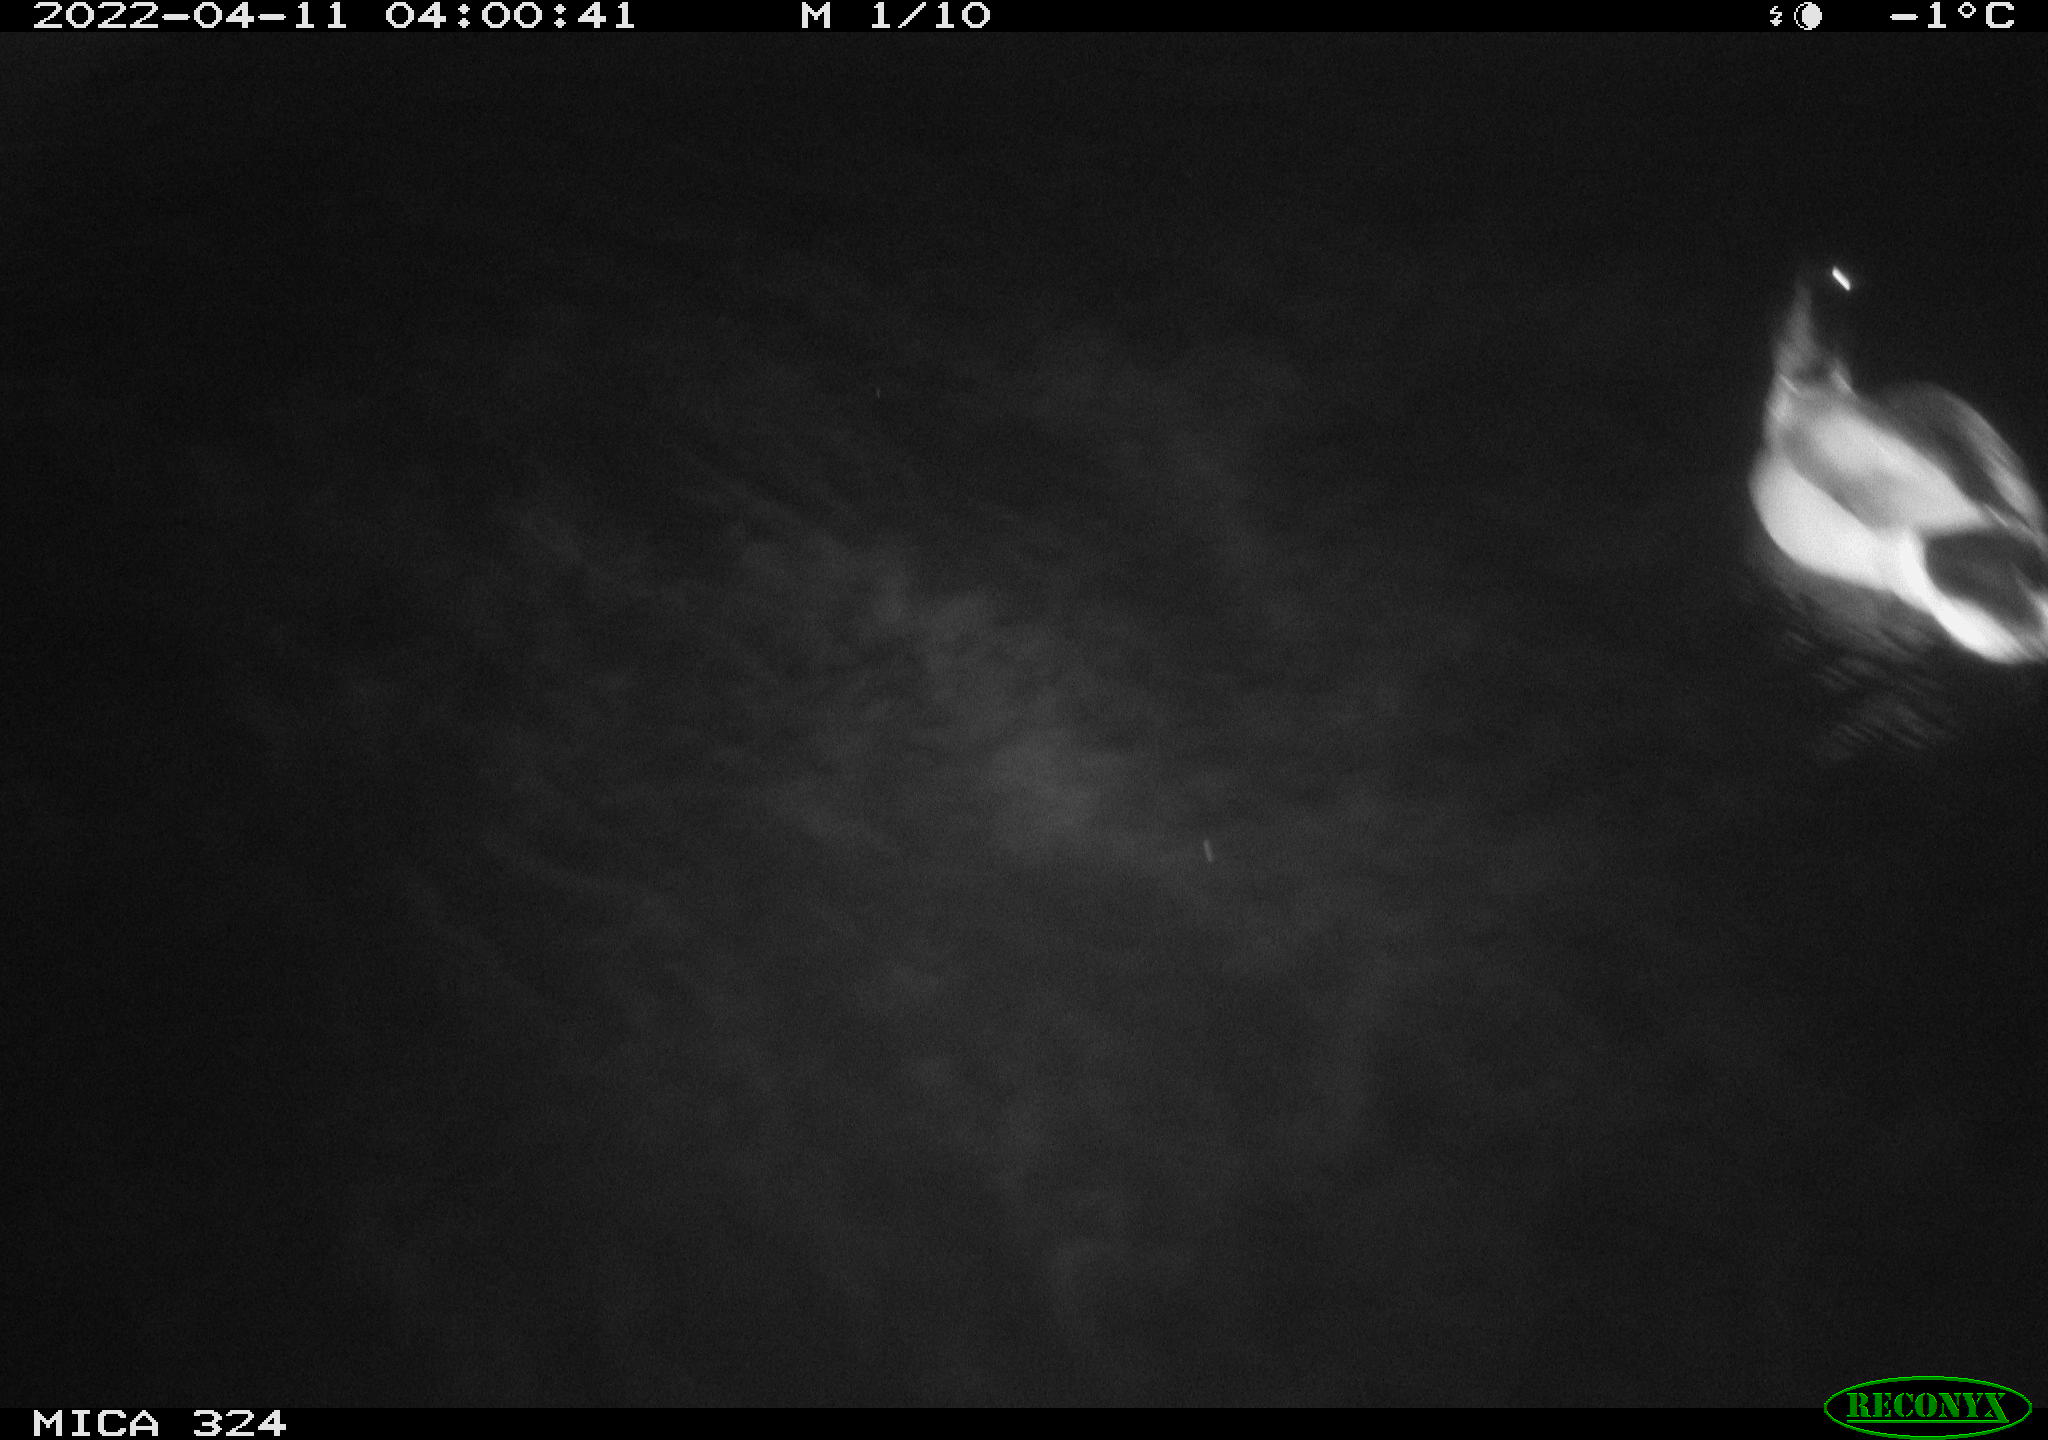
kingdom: Animalia
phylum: Chordata
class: Aves
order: Anseriformes
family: Anatidae
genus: Anas
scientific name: Anas platyrhynchos
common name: Mallard
